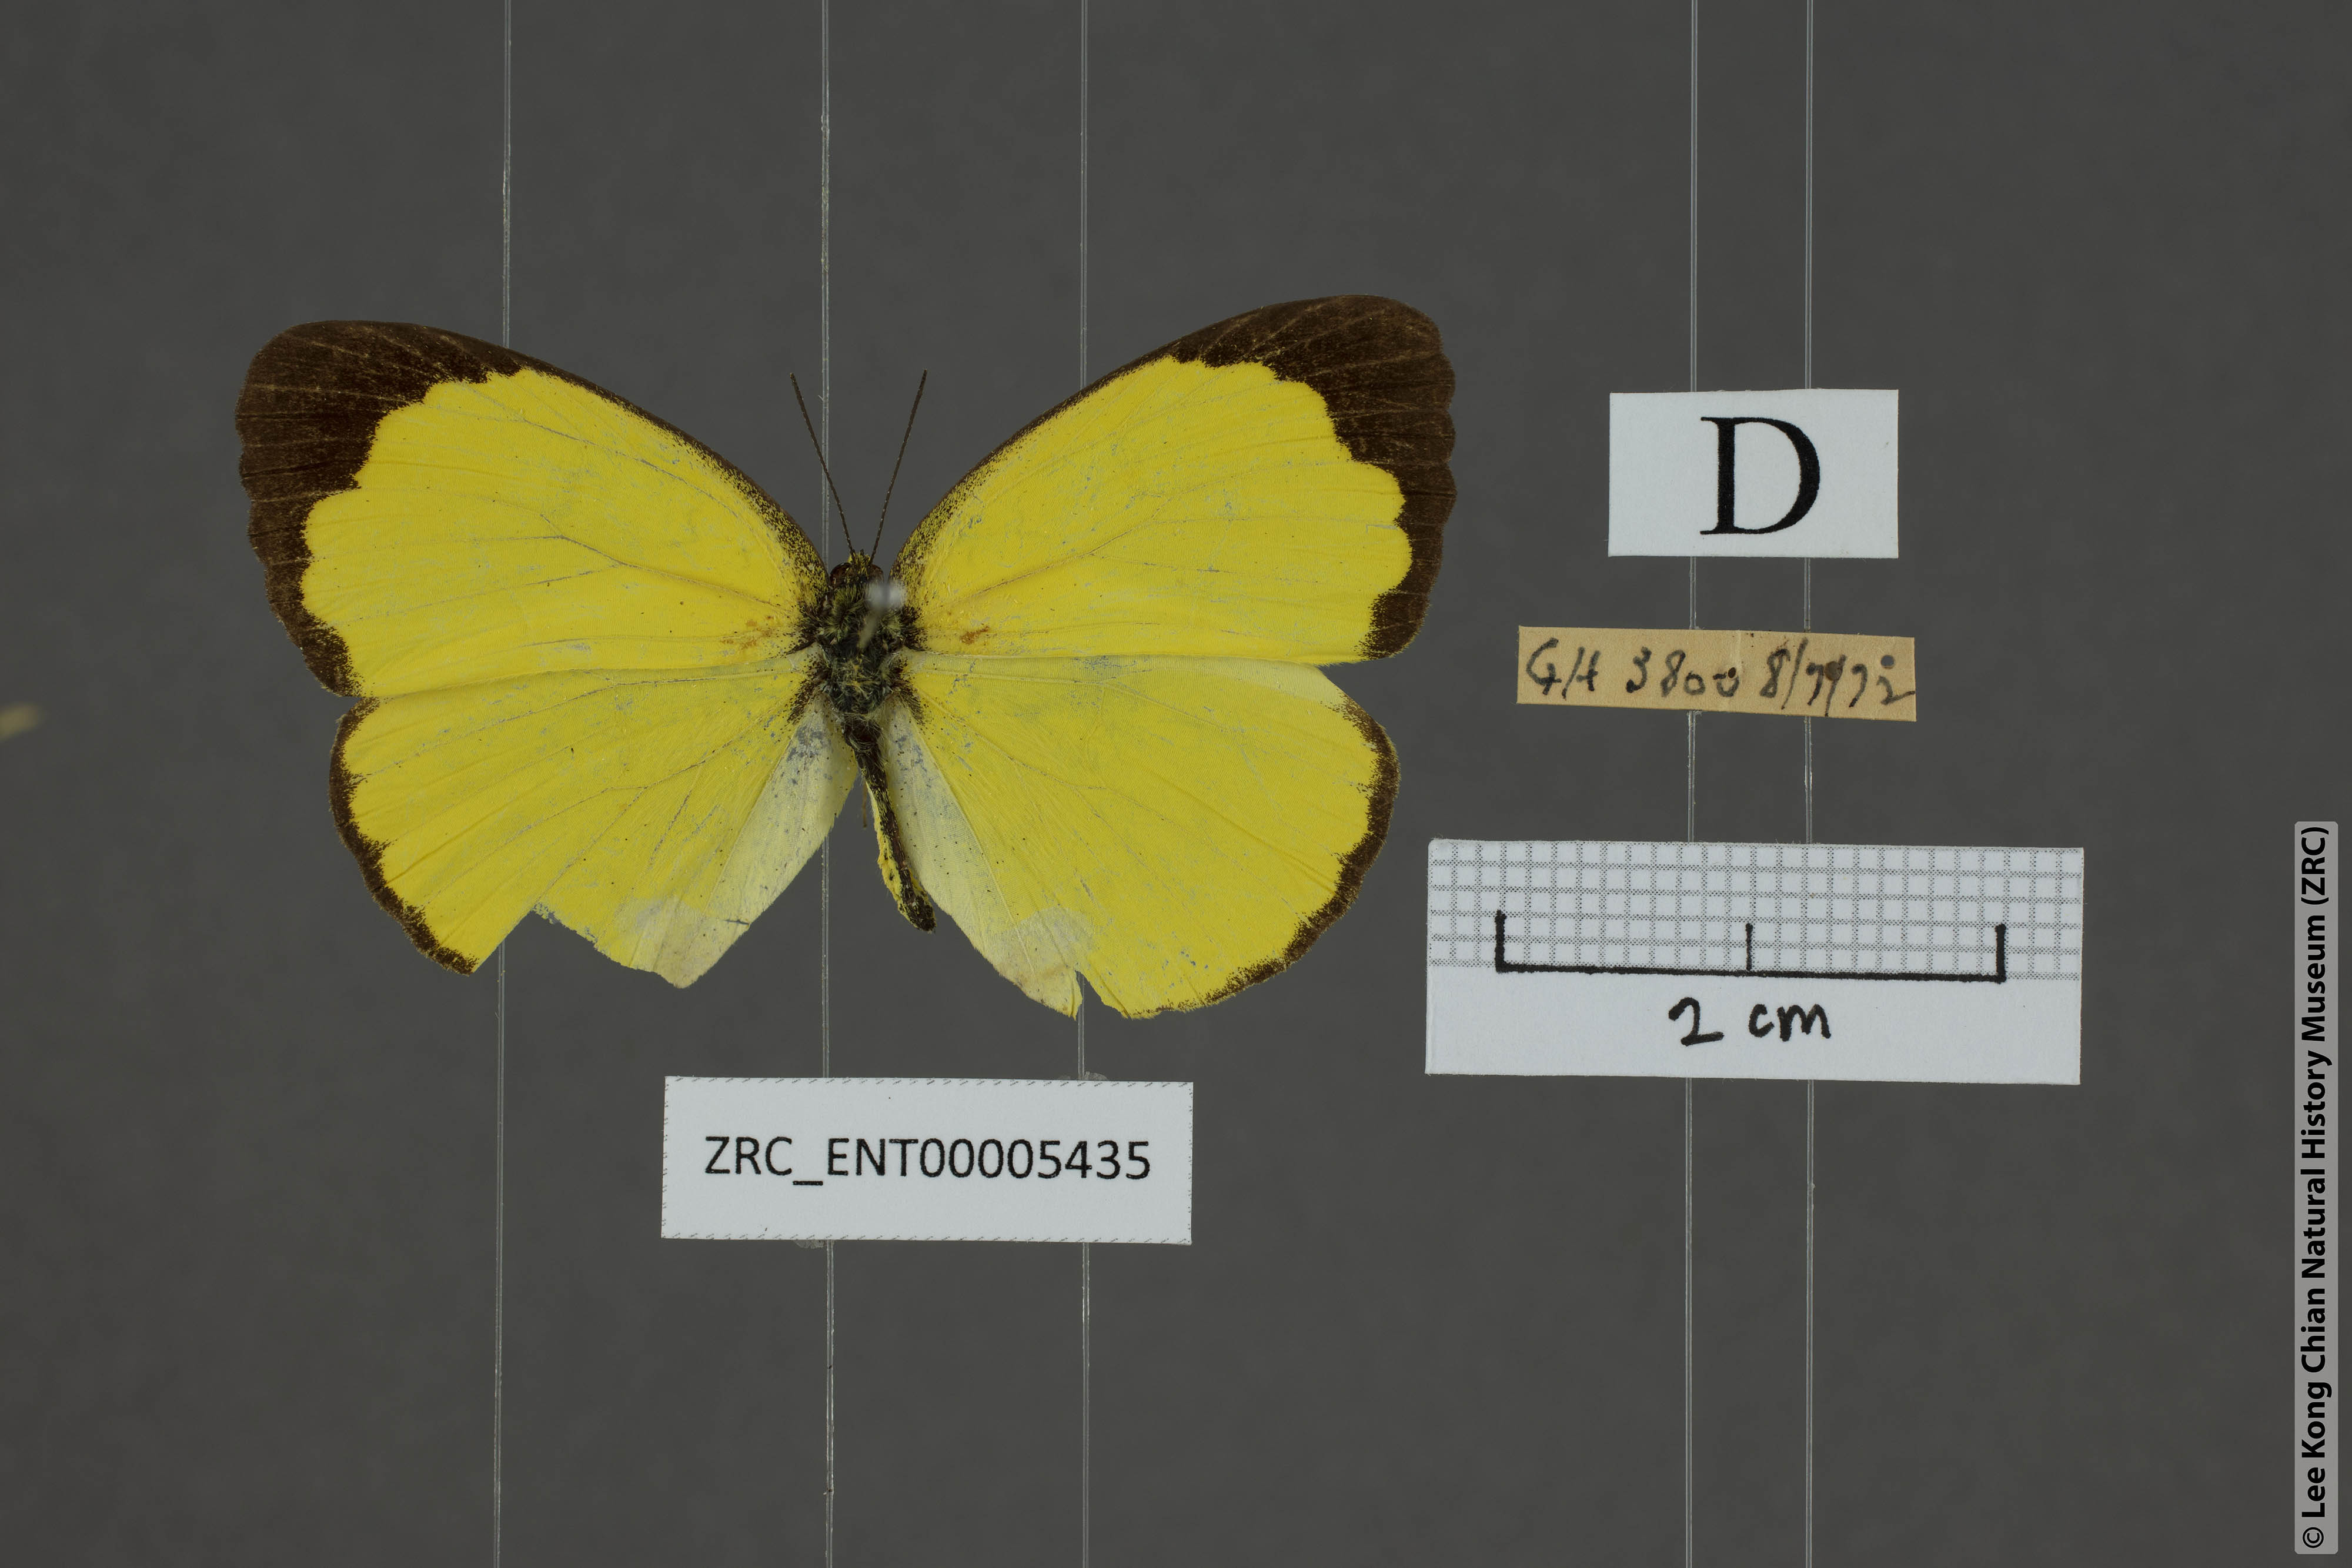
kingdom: Animalia
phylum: Arthropoda
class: Insecta
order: Lepidoptera
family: Pieridae
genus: Eurema
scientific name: Eurema blanda
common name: Three-spot grass yellow
